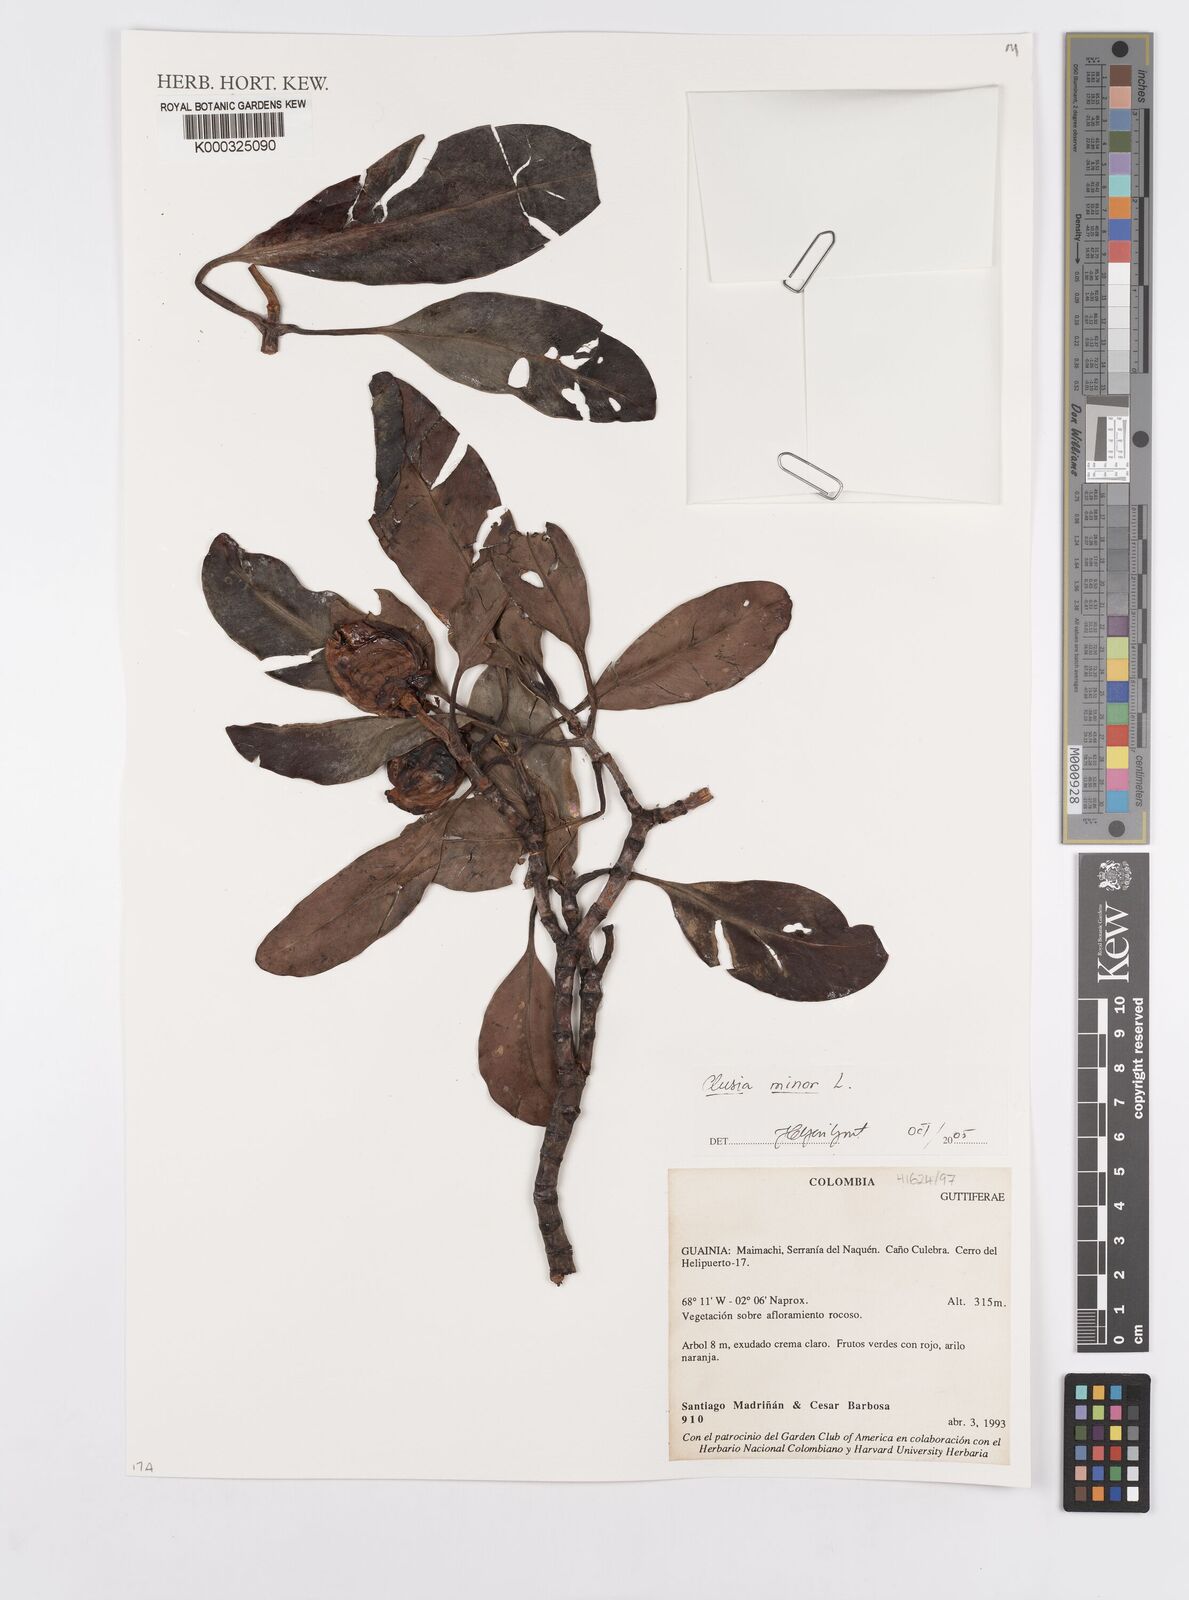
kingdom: Plantae
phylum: Tracheophyta
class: Magnoliopsida
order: Malpighiales
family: Clusiaceae
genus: Clusia
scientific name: Clusia minor
